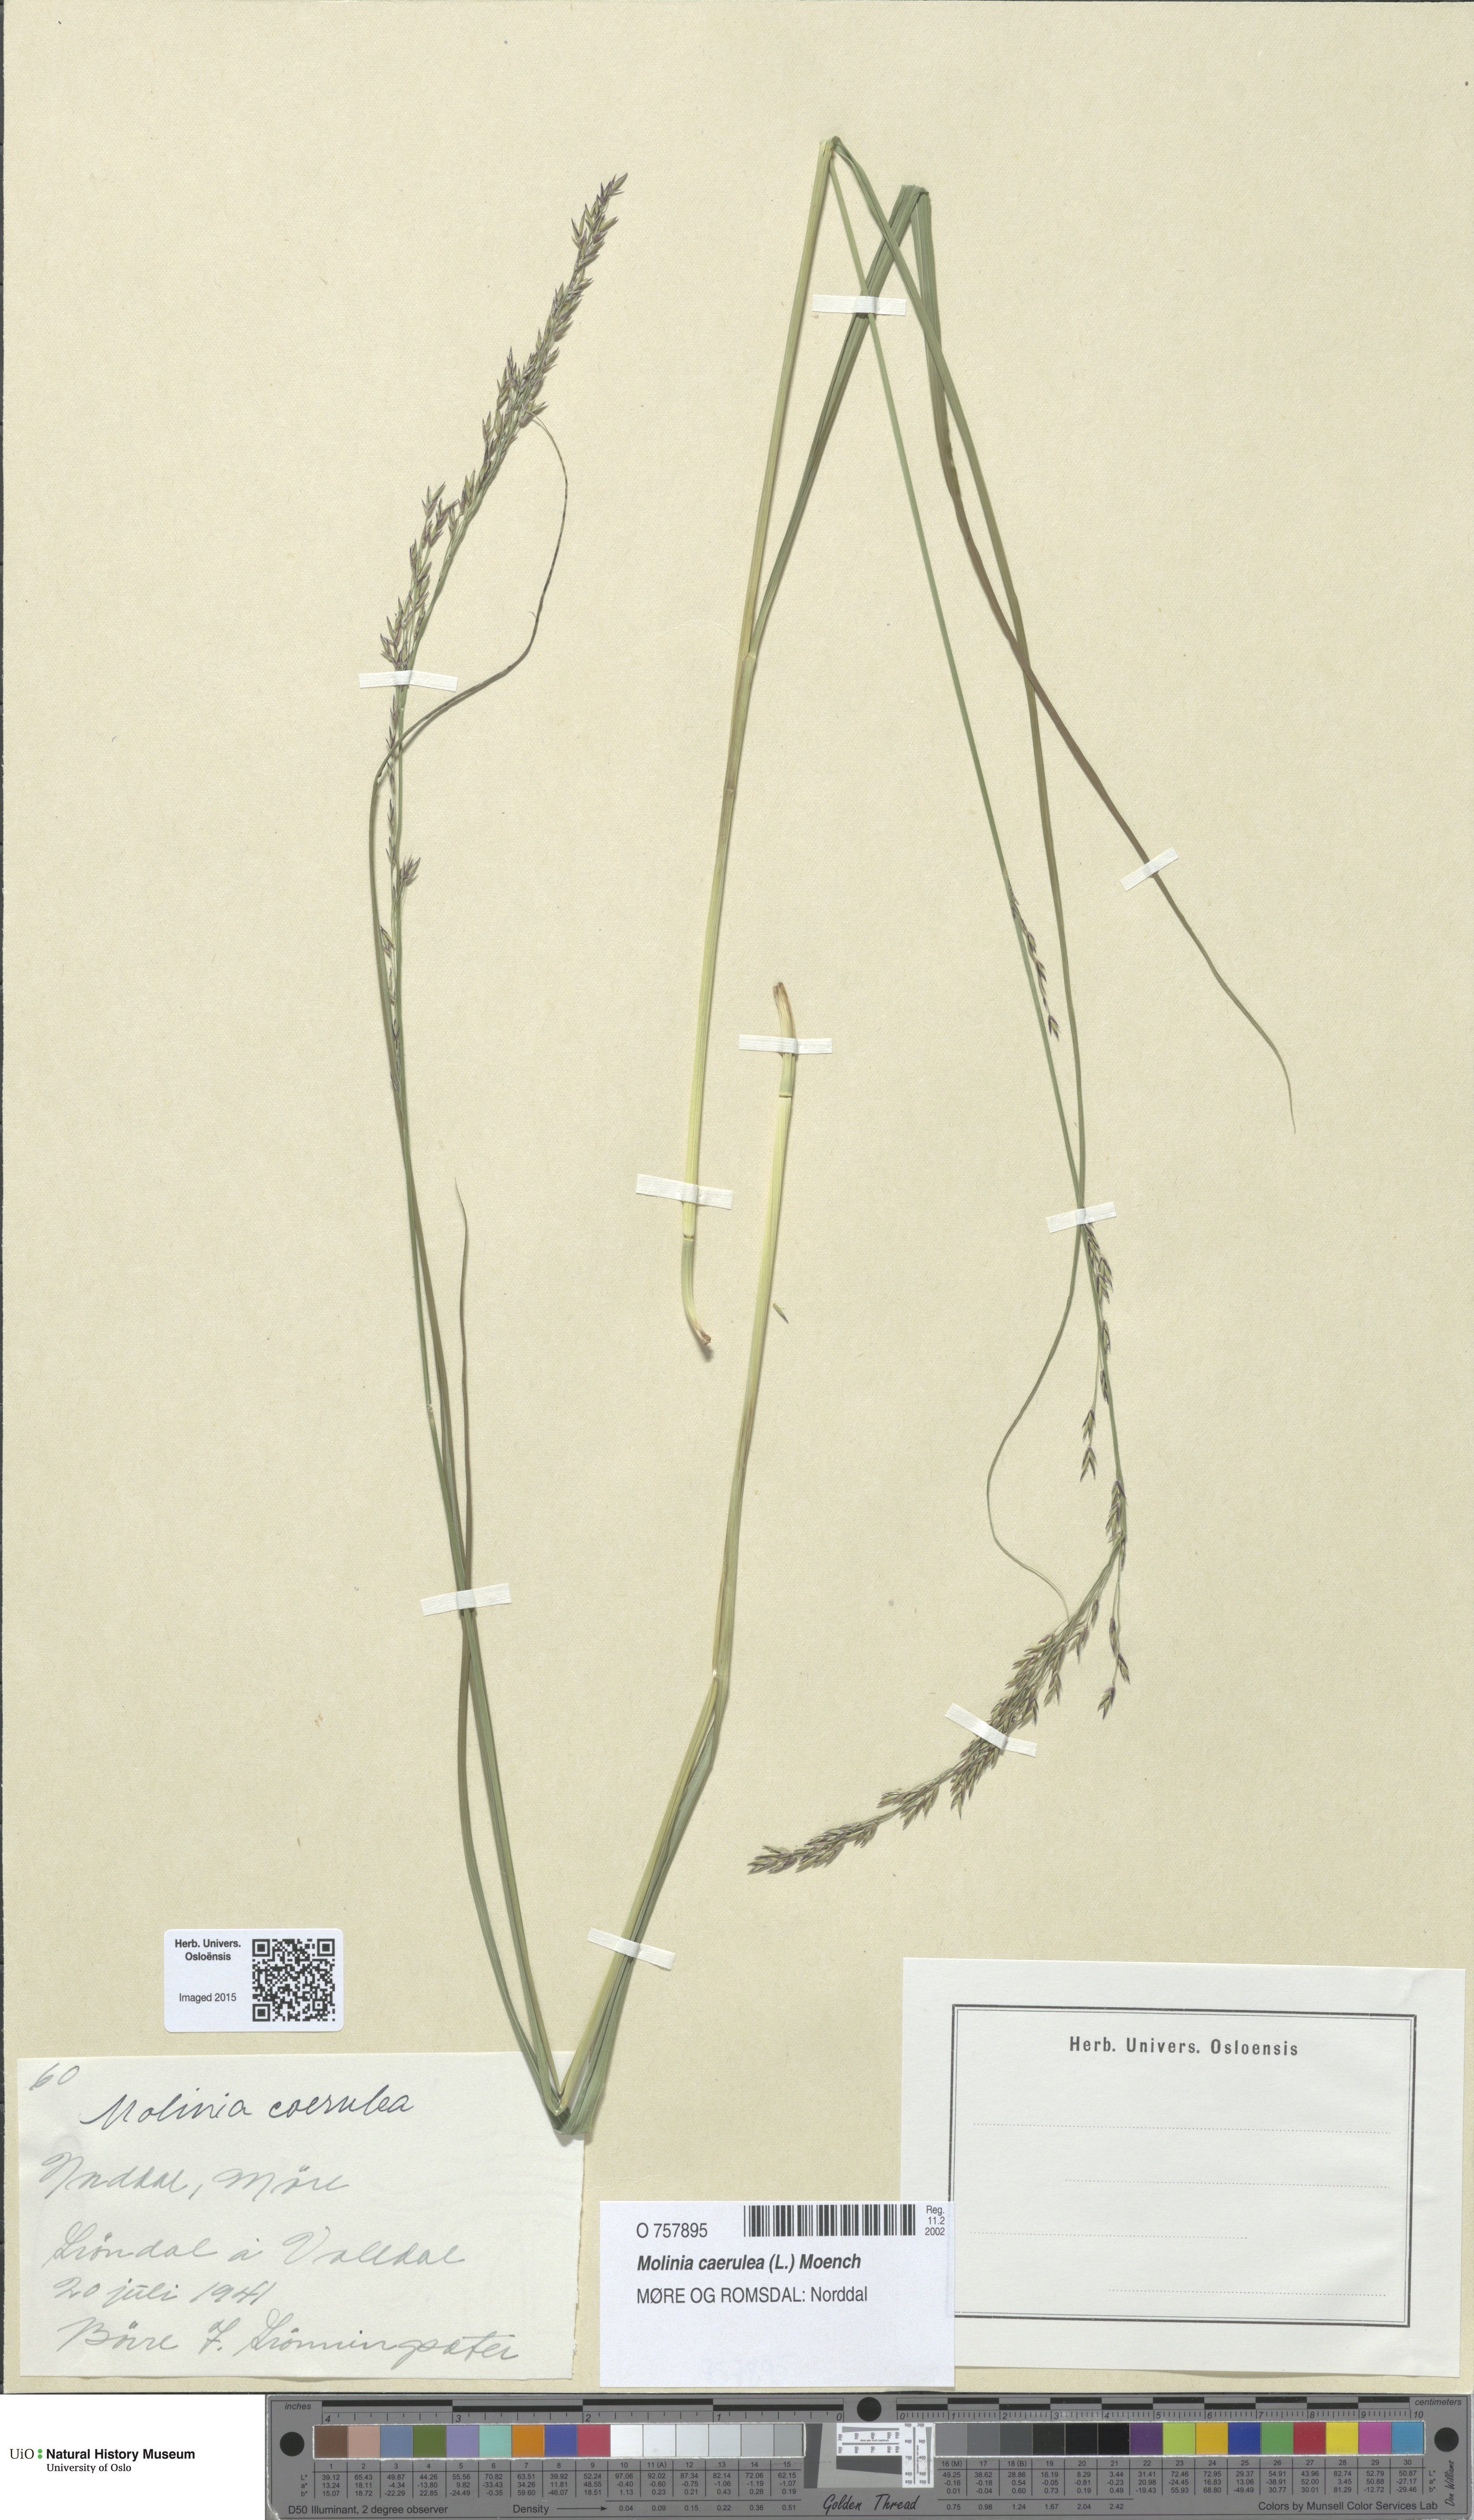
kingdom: Plantae
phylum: Tracheophyta
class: Liliopsida
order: Poales
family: Poaceae
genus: Molinia
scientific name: Molinia caerulea
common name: Purple moor-grass
